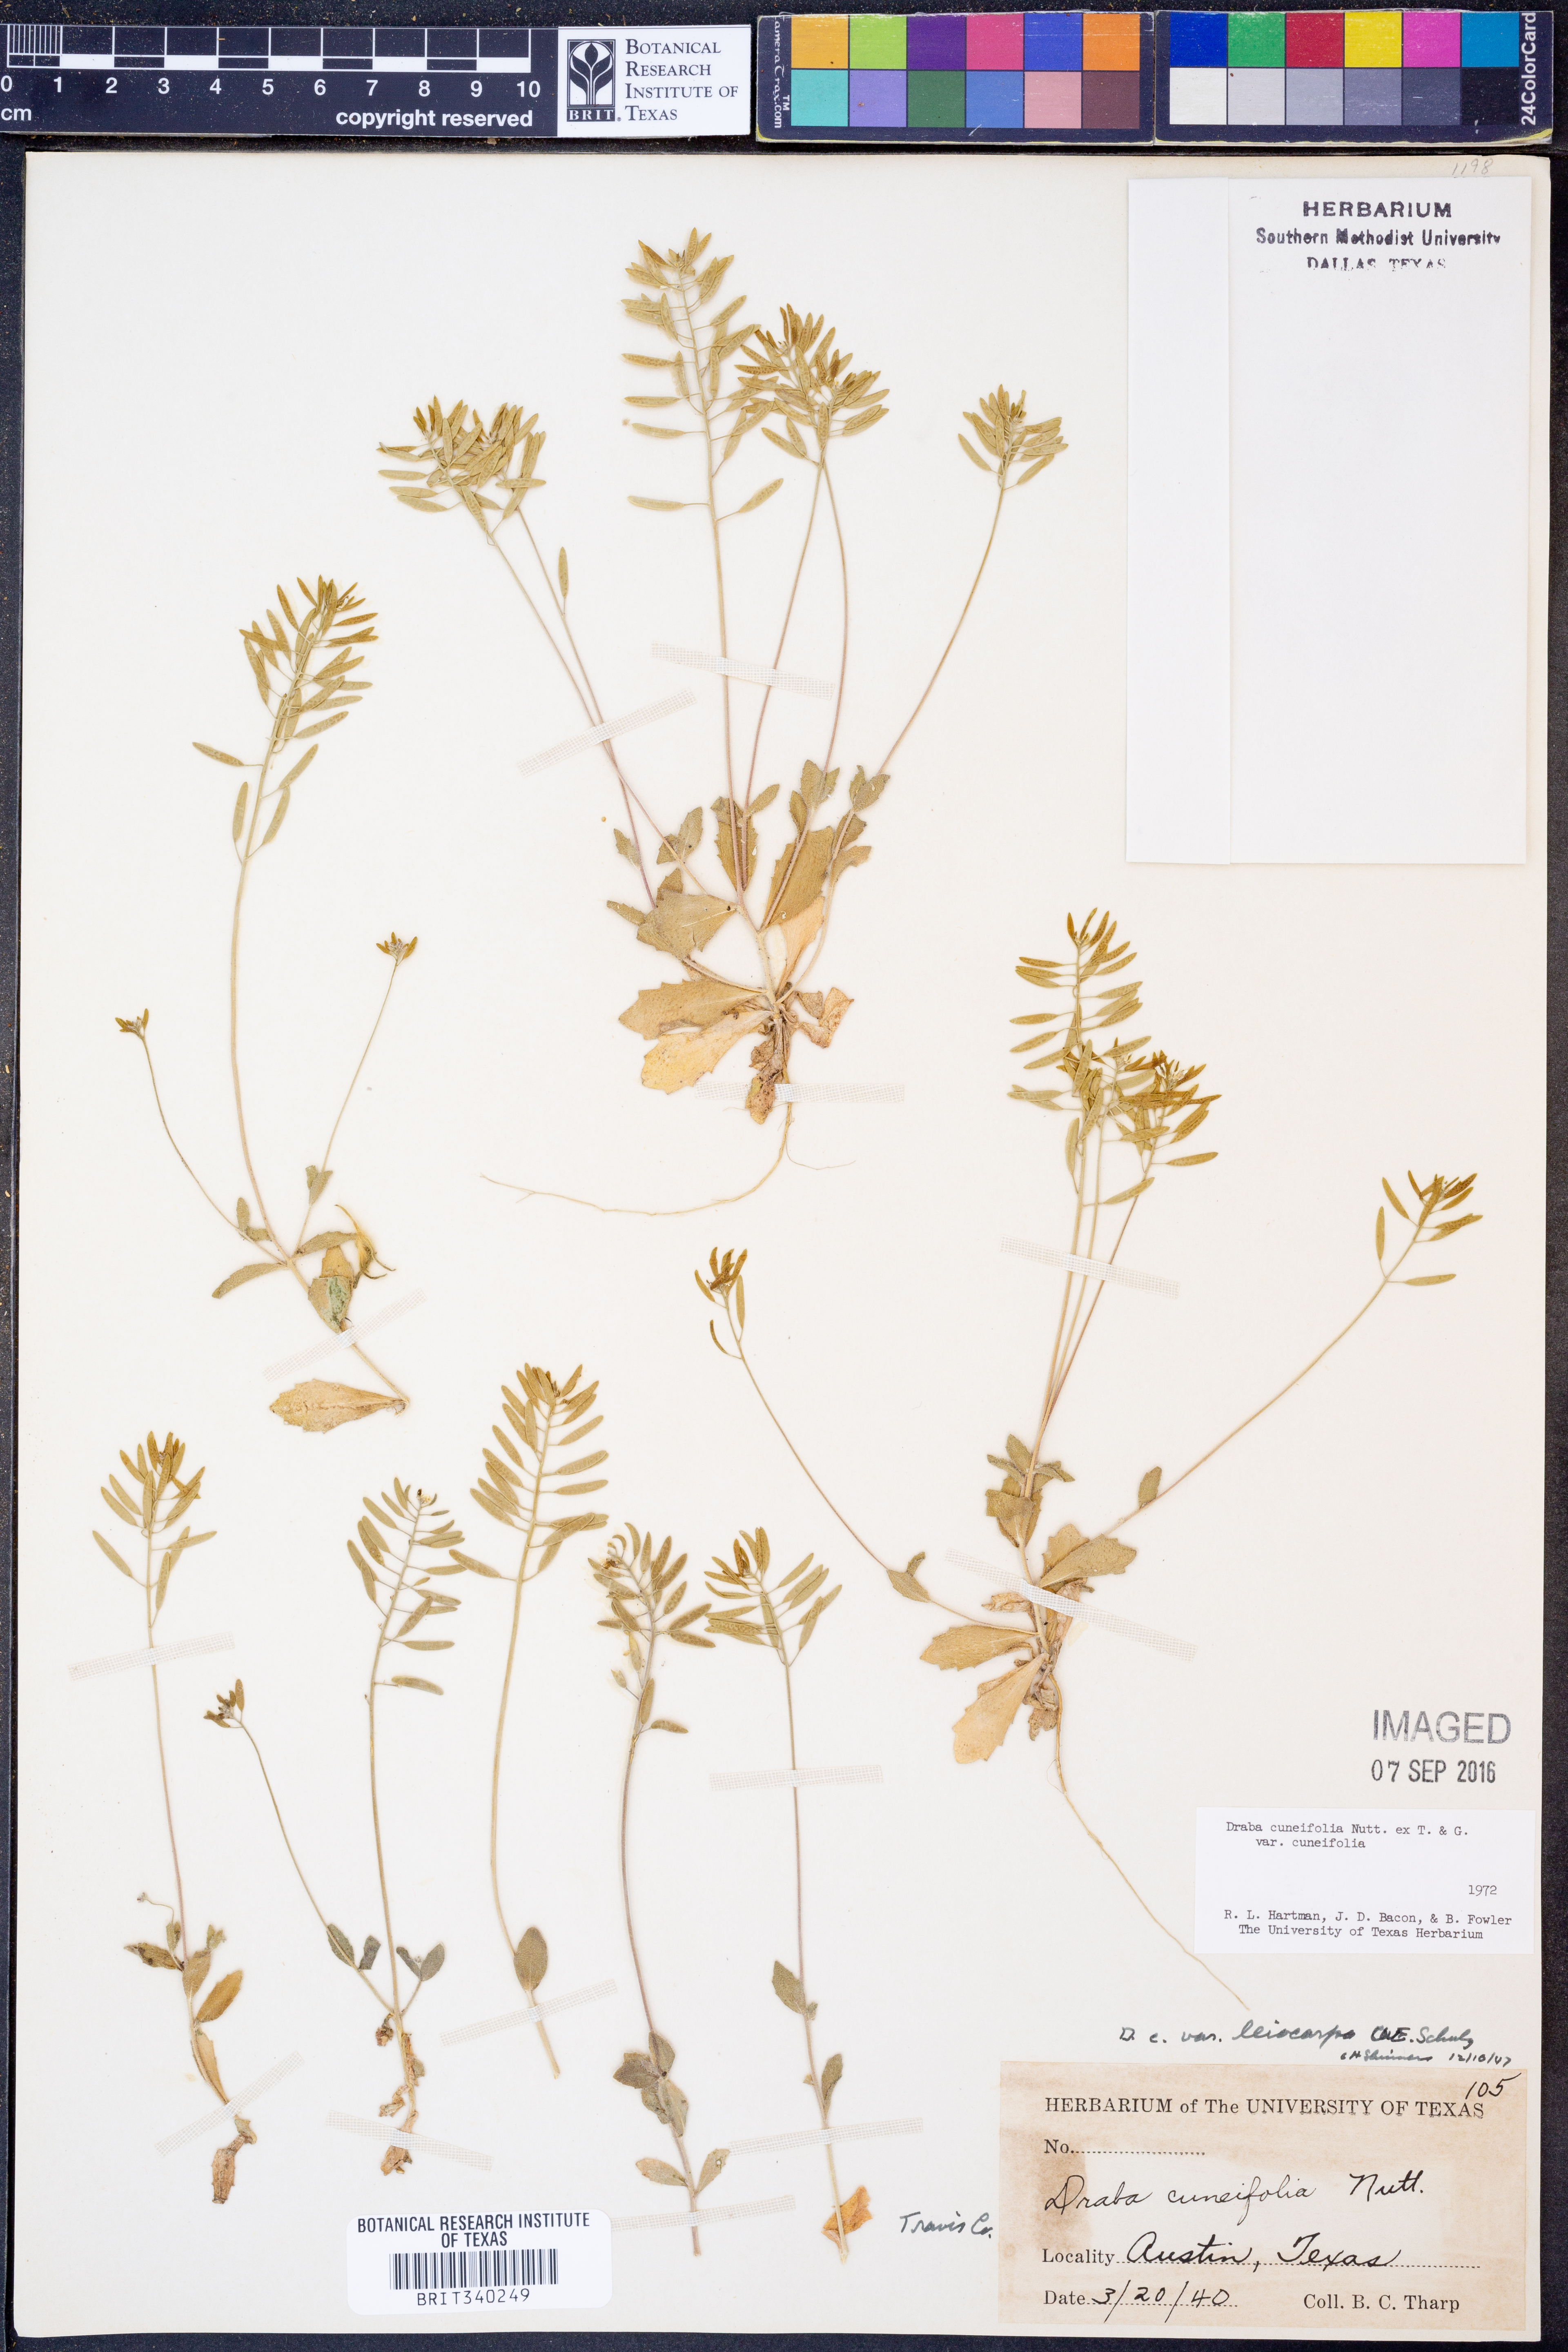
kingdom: Plantae
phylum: Tracheophyta
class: Magnoliopsida
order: Brassicales
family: Brassicaceae
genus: Tomostima
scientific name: Tomostima cuneifolia
